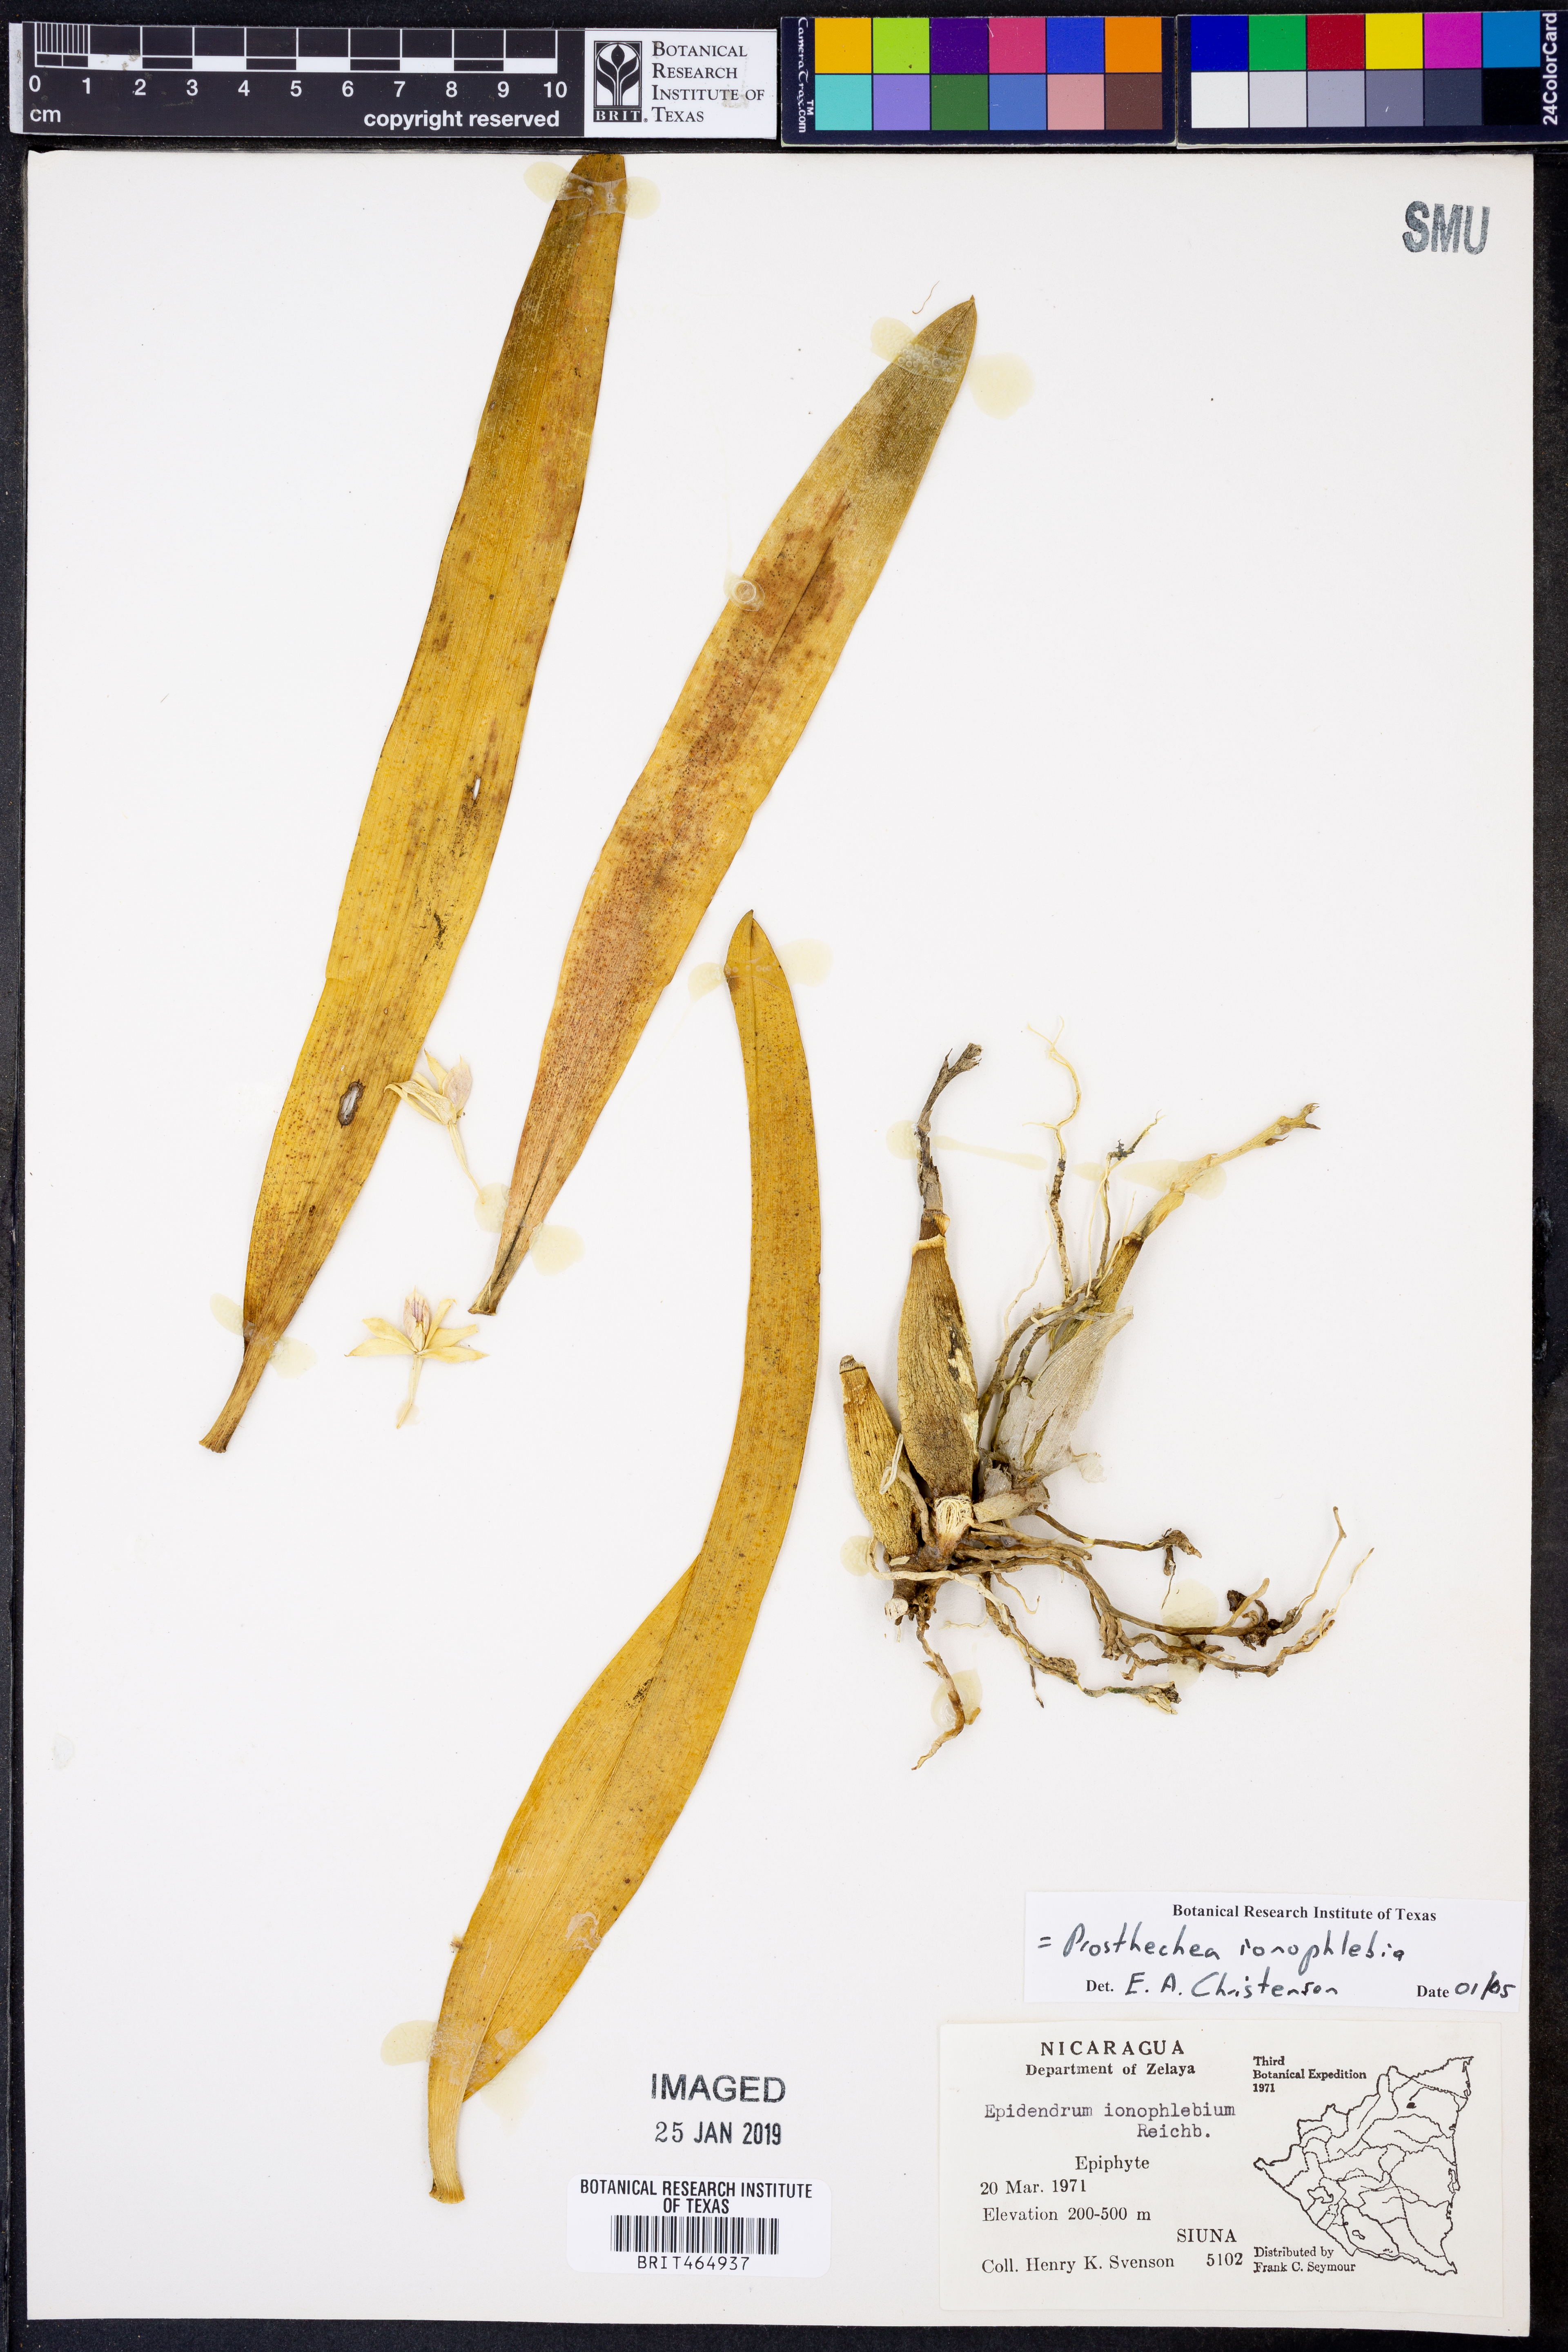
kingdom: Plantae
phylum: Tracheophyta
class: Liliopsida
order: Asparagales
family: Orchidaceae
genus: Prosthechea
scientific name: Prosthechea ionophlebia
